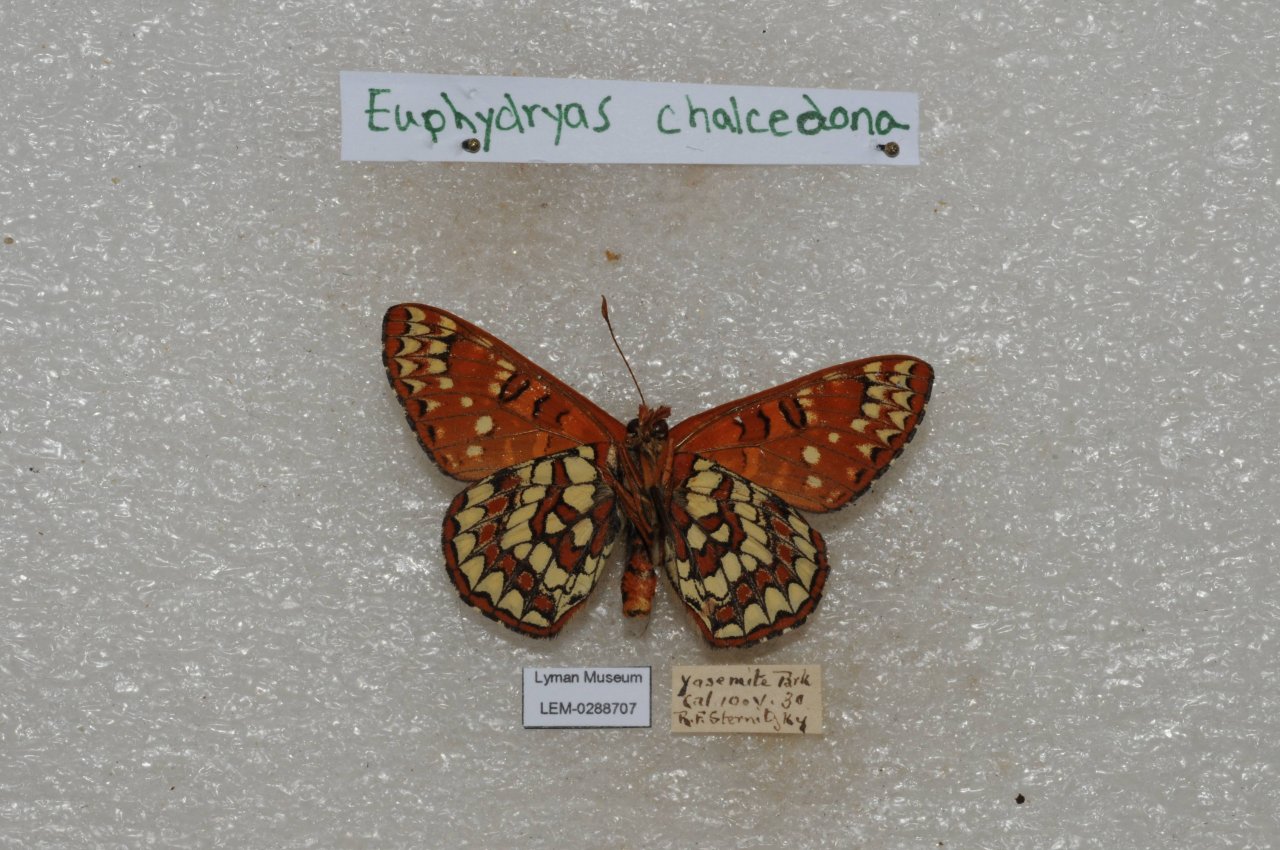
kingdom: Animalia
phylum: Arthropoda
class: Insecta
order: Lepidoptera
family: Nymphalidae
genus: Occidryas
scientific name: Occidryas chalcedona
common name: Chalcedon Checkerspot
